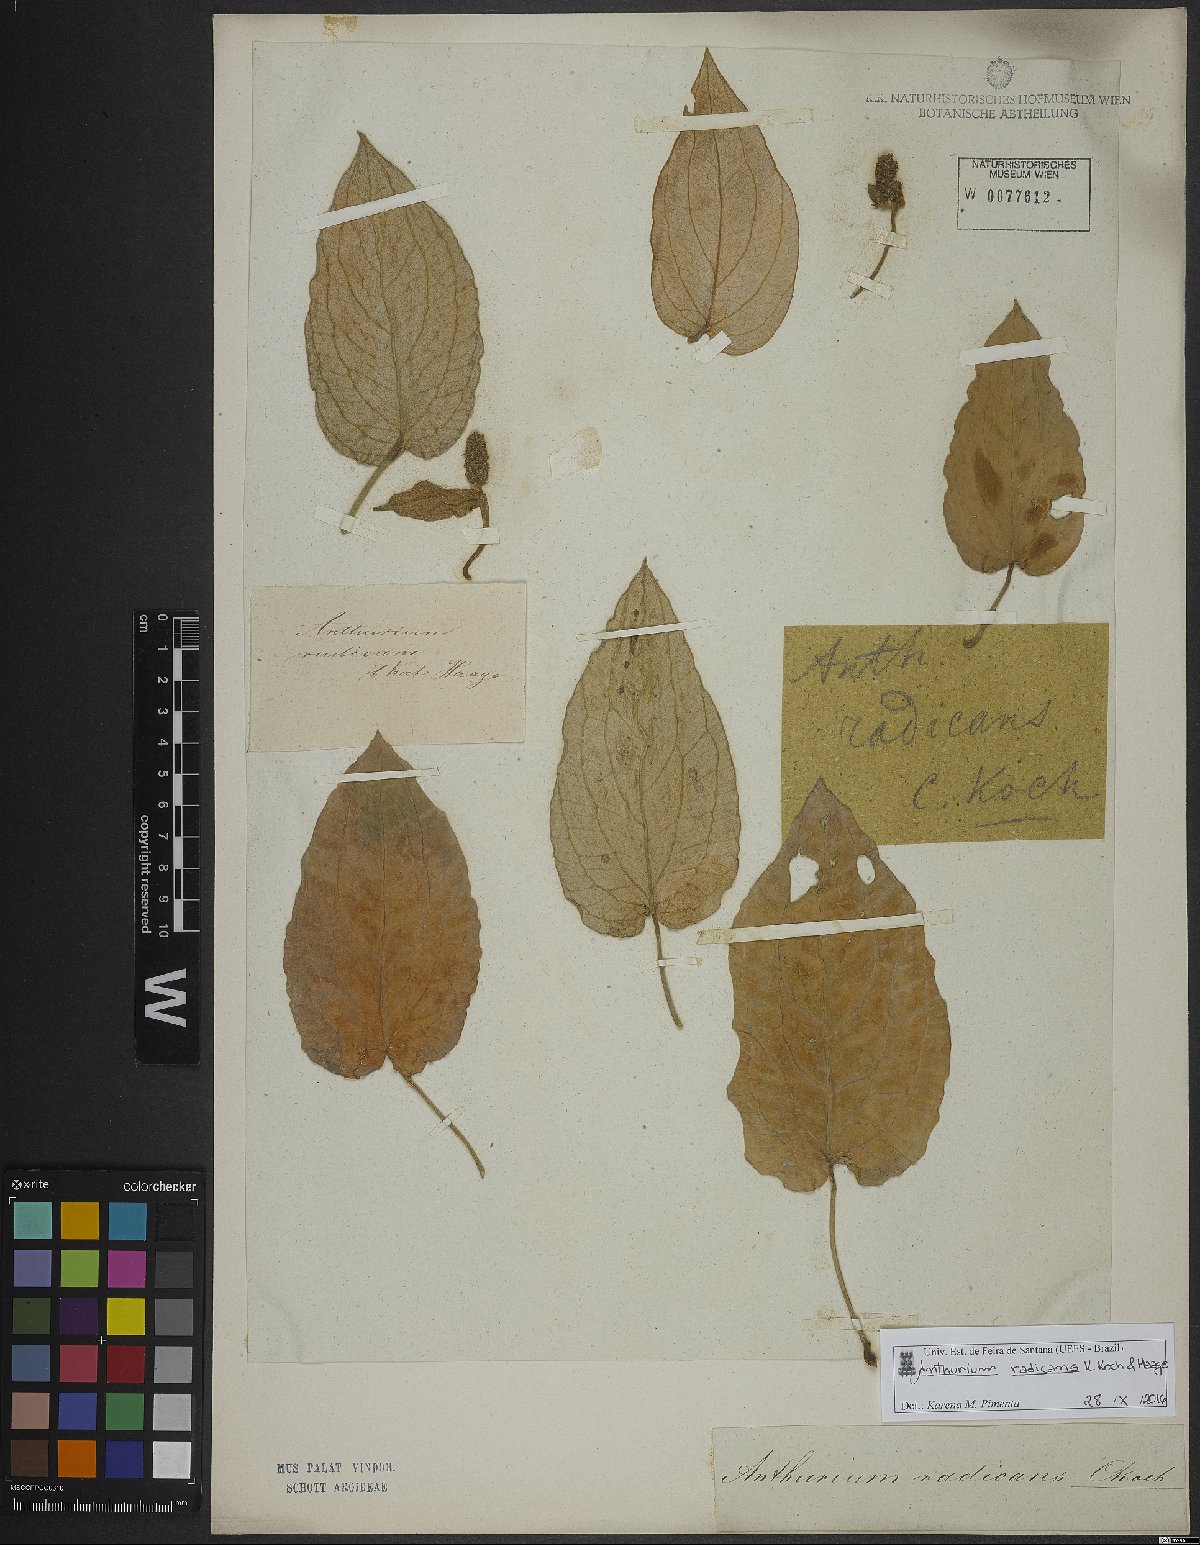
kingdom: Plantae
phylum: Tracheophyta
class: Liliopsida
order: Alismatales
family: Araceae
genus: Anthurium
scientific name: Anthurium radicans
